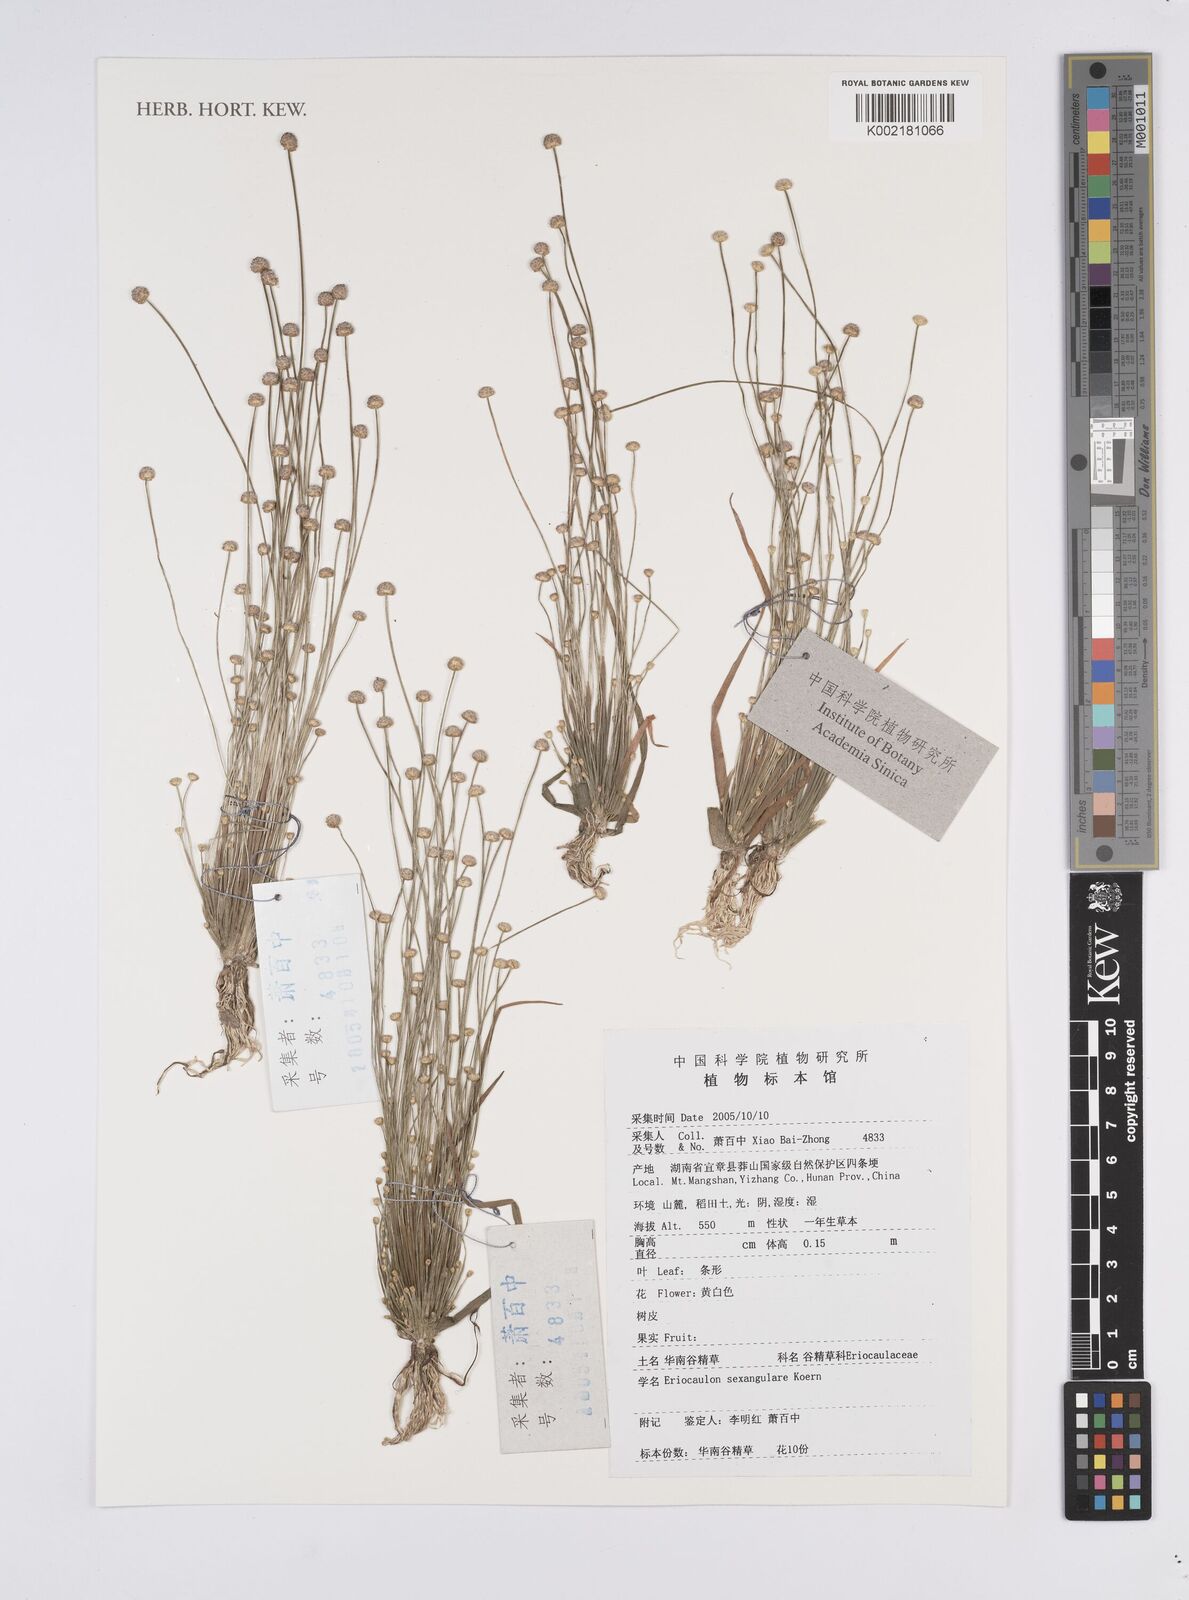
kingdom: Plantae
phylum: Tracheophyta
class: Liliopsida
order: Poales
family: Eriocaulaceae
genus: Eriocaulon
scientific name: Eriocaulon sexangulare
